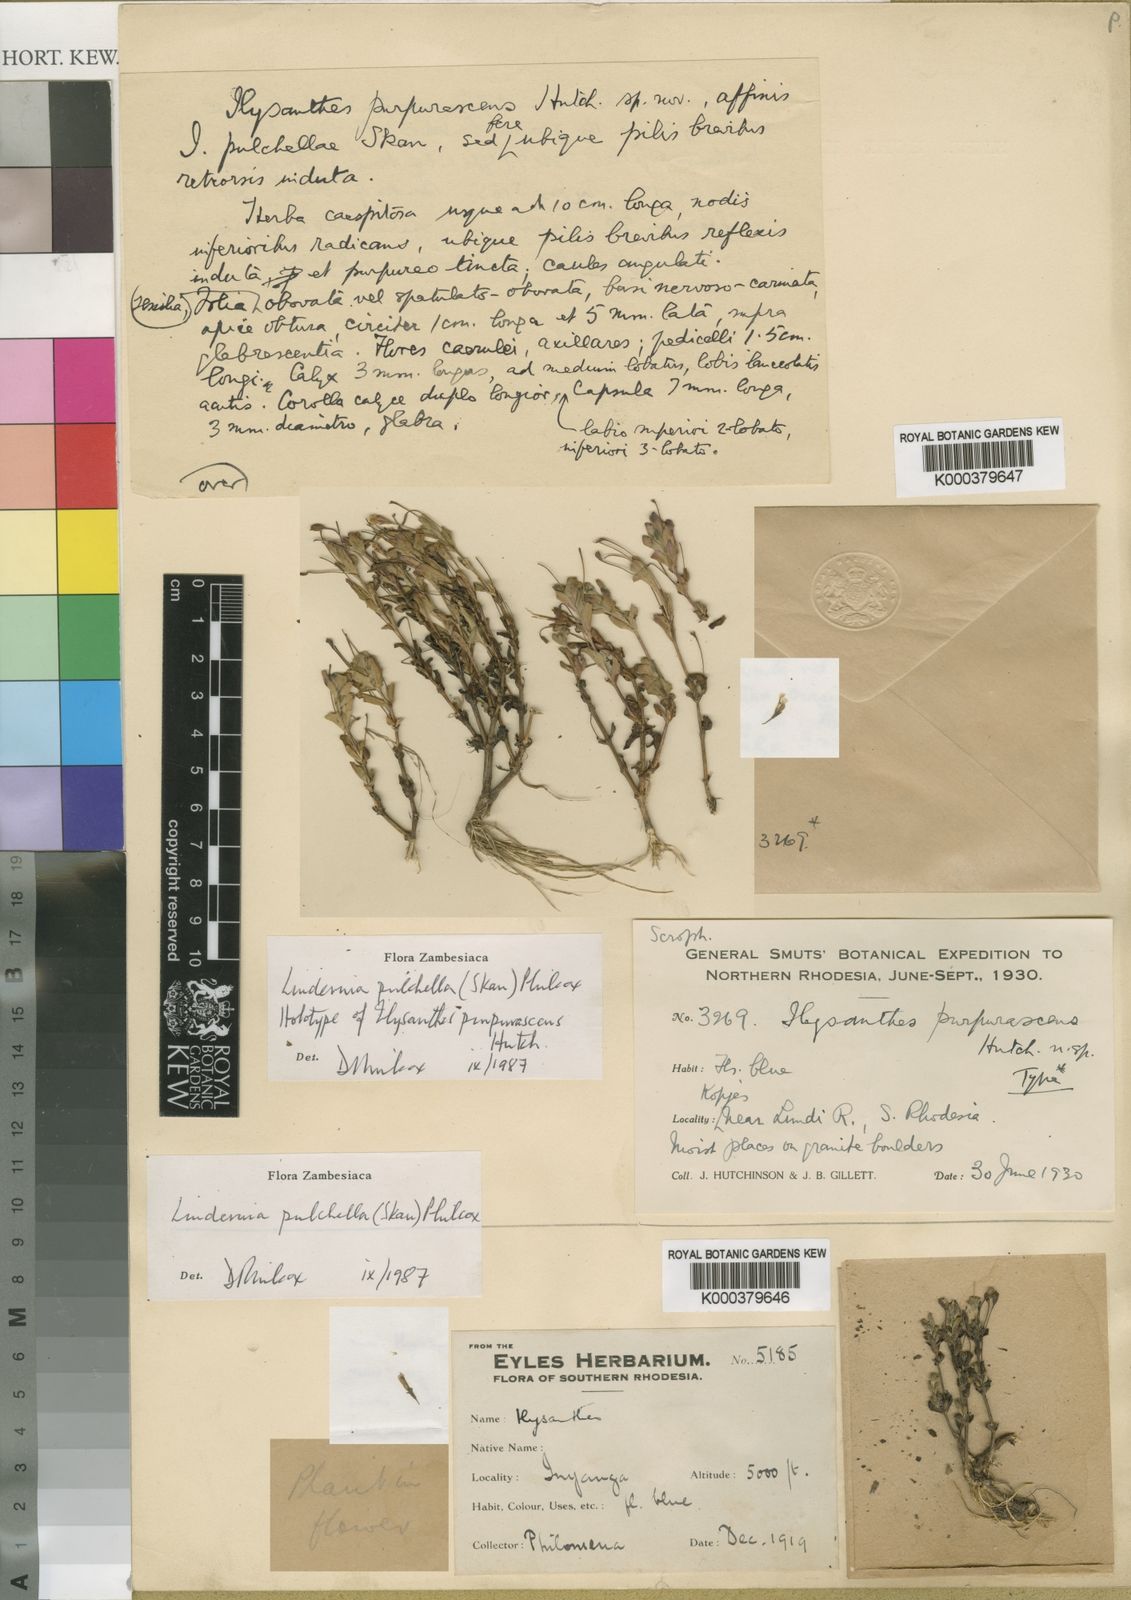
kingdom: Plantae
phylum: Tracheophyta
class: Magnoliopsida
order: Lamiales
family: Linderniaceae
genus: Linderniella
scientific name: Linderniella pulchella
